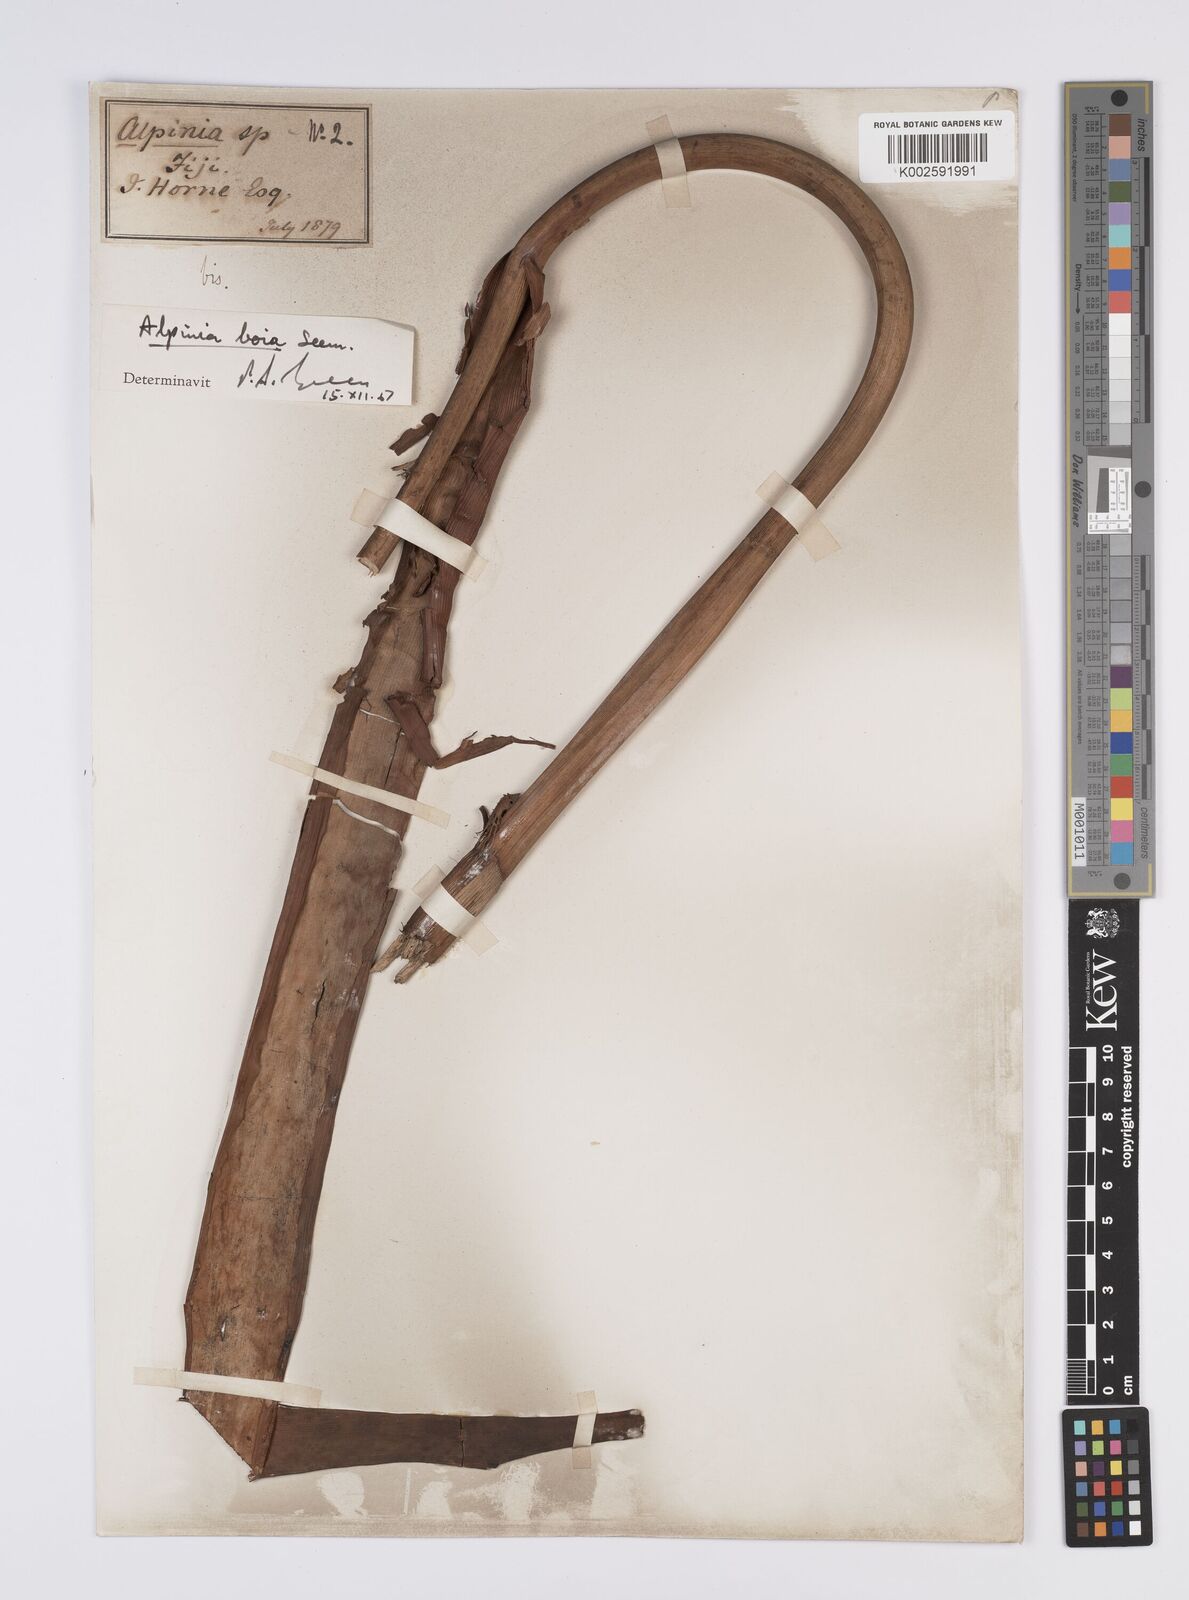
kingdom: Plantae
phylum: Tracheophyta
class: Liliopsida
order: Zingiberales
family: Zingiberaceae
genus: Alpinia
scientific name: Alpinia boia
